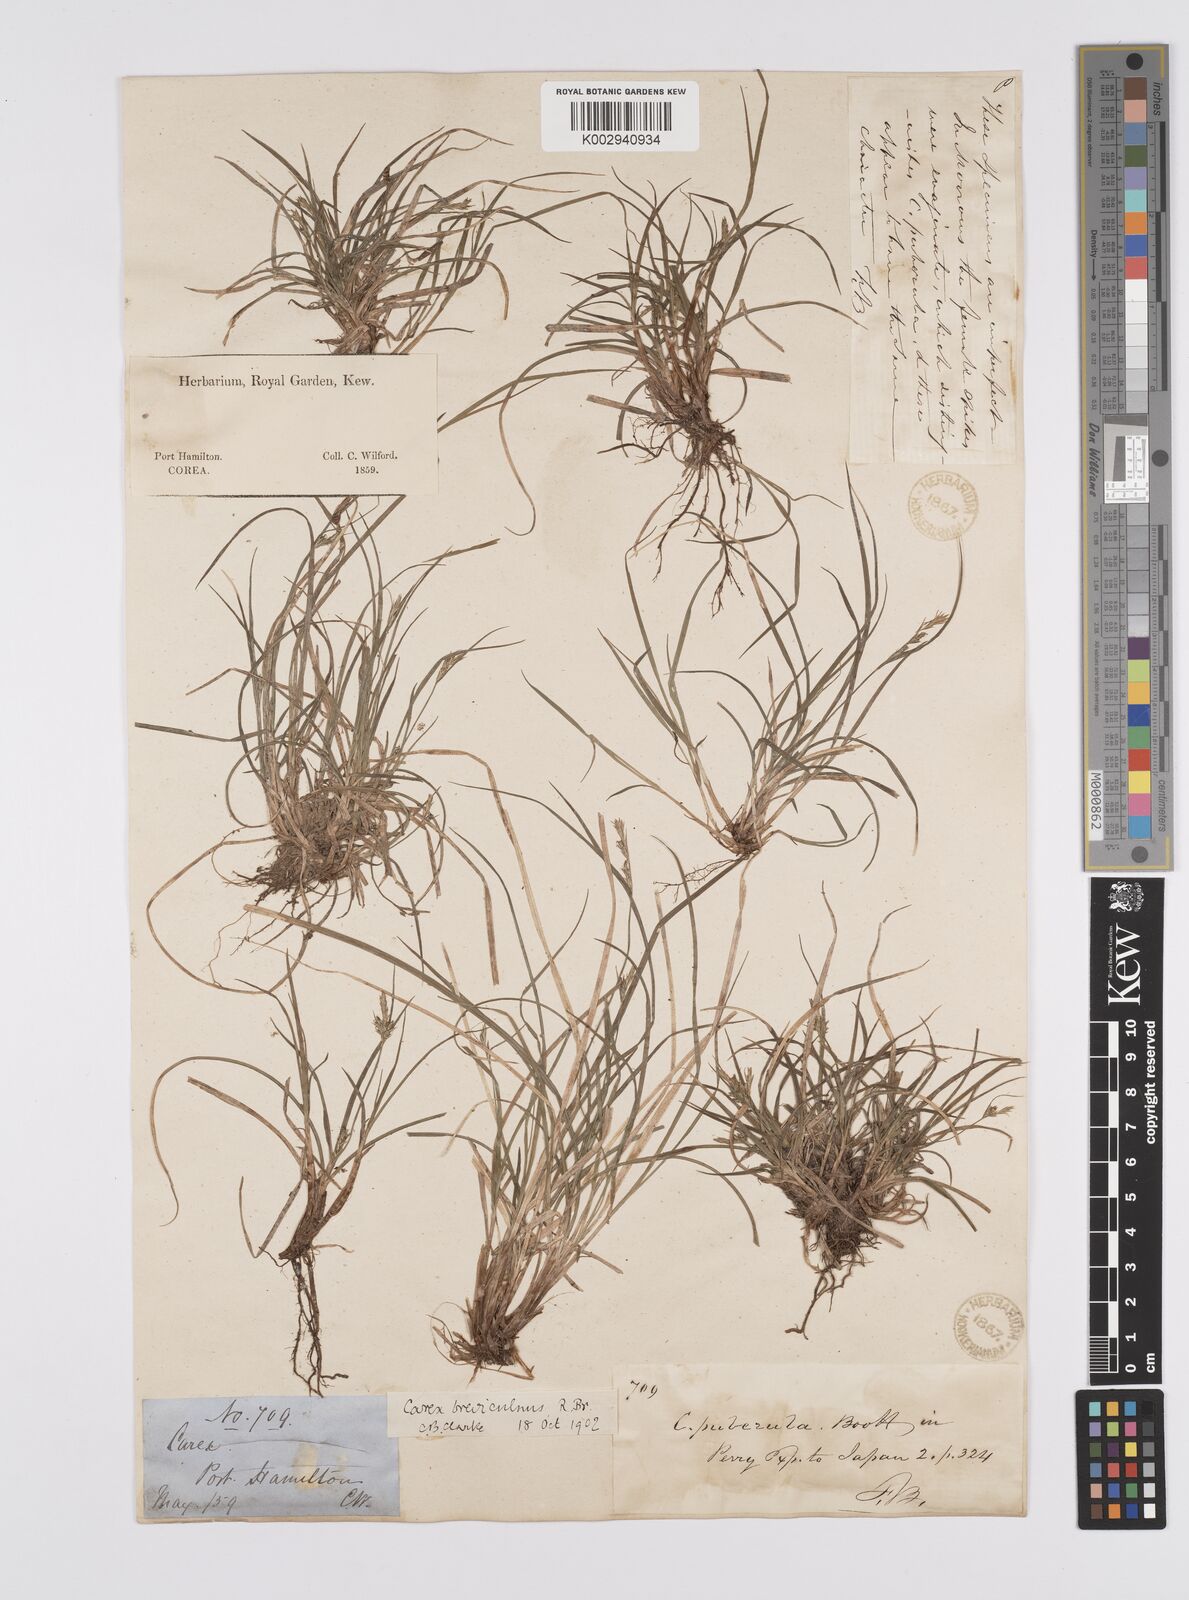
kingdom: Plantae
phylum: Tracheophyta
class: Liliopsida
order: Poales
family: Cyperaceae
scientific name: Cyperaceae
